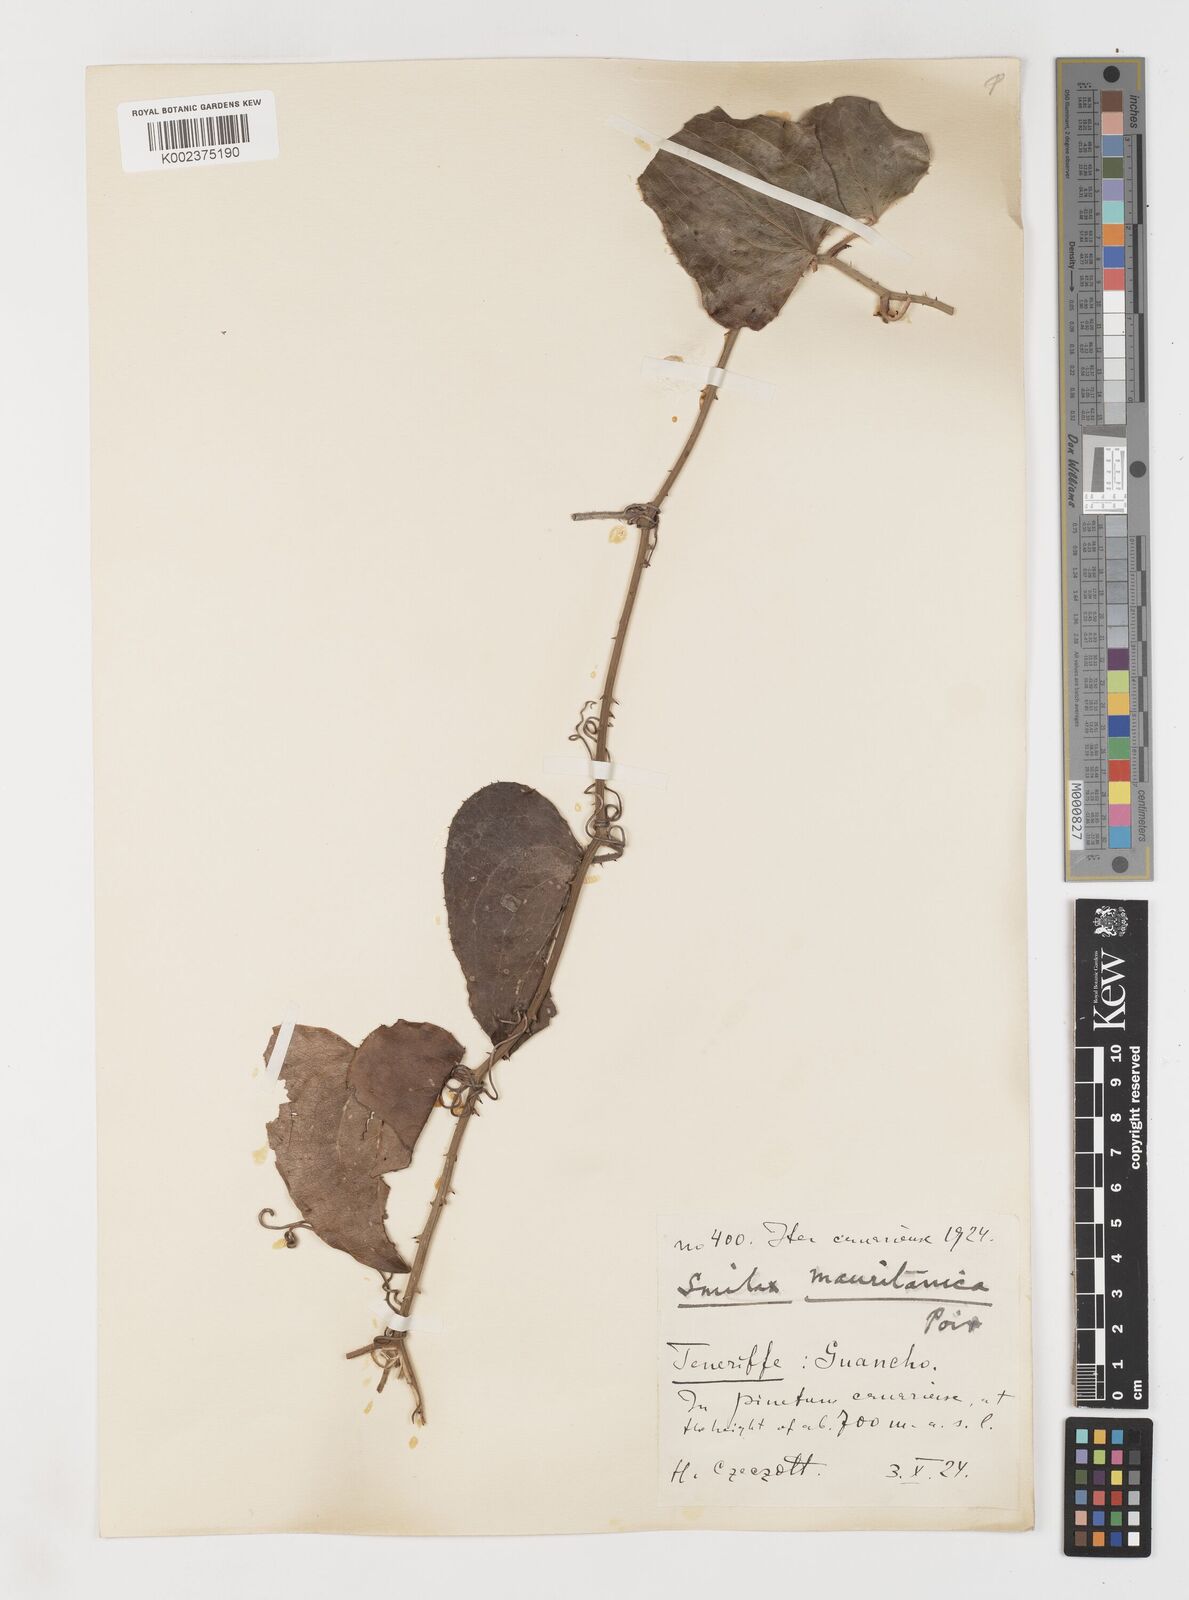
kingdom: Plantae
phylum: Tracheophyta
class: Liliopsida
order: Liliales
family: Smilacaceae
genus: Smilax
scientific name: Smilax aspera
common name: Common smilax
